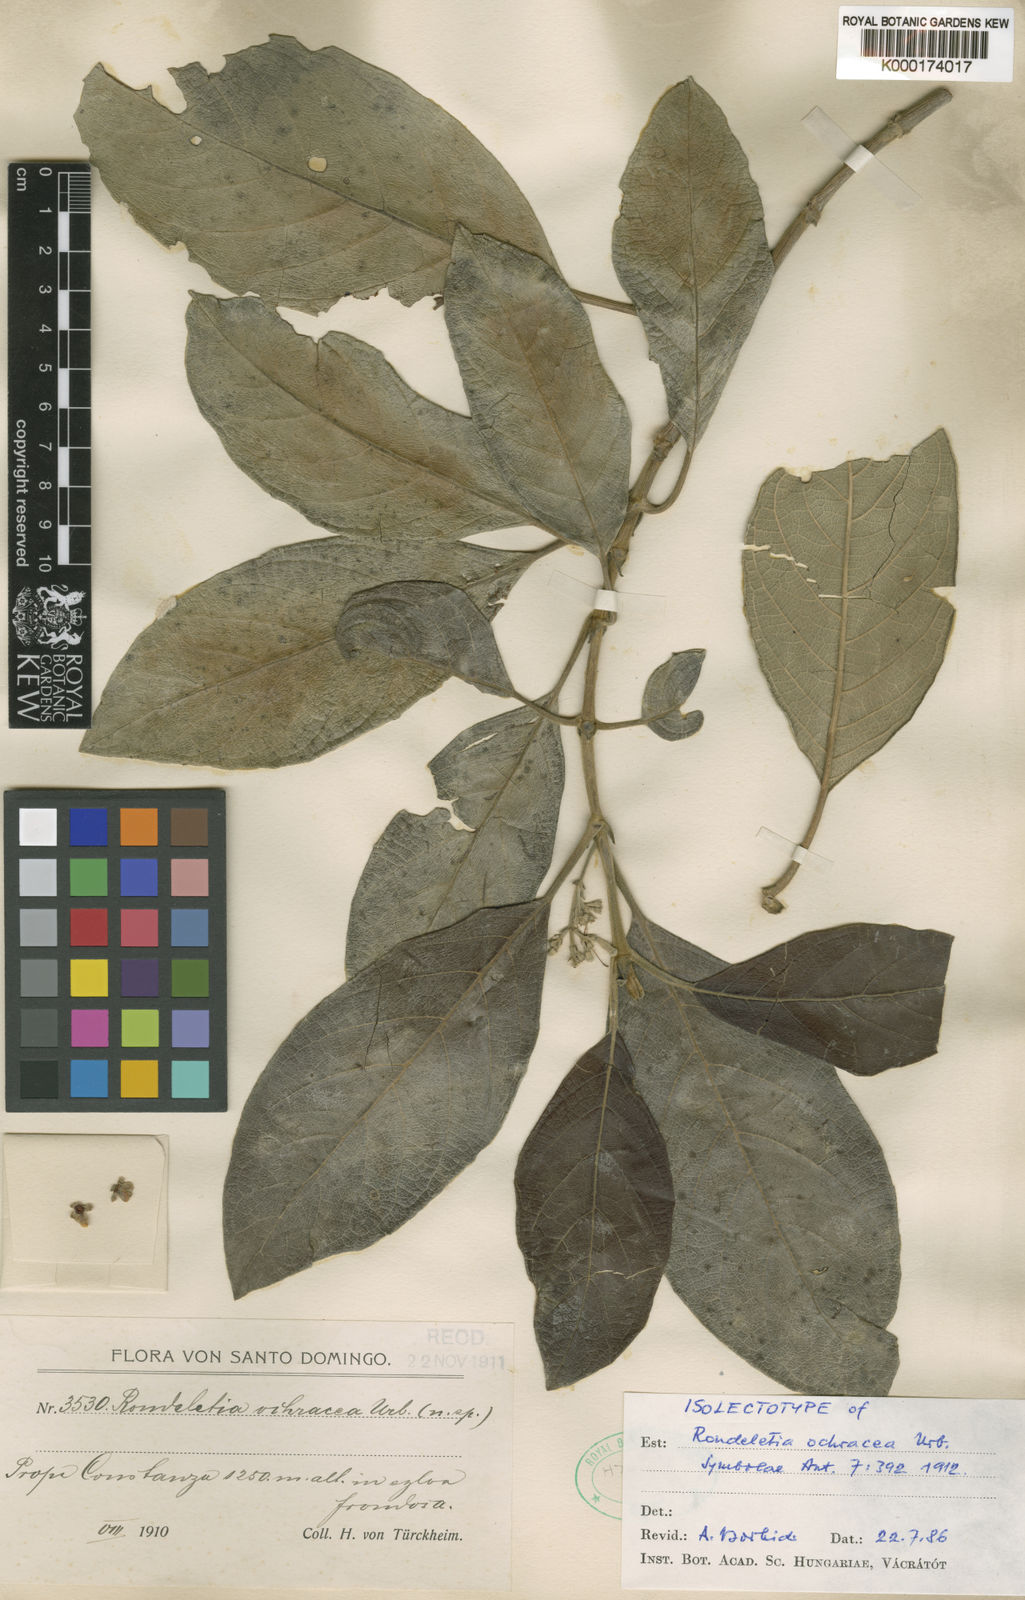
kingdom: Plantae
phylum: Tracheophyta
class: Magnoliopsida
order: Gentianales
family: Rubiaceae
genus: Rondeletia
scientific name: Rondeletia ochracea
